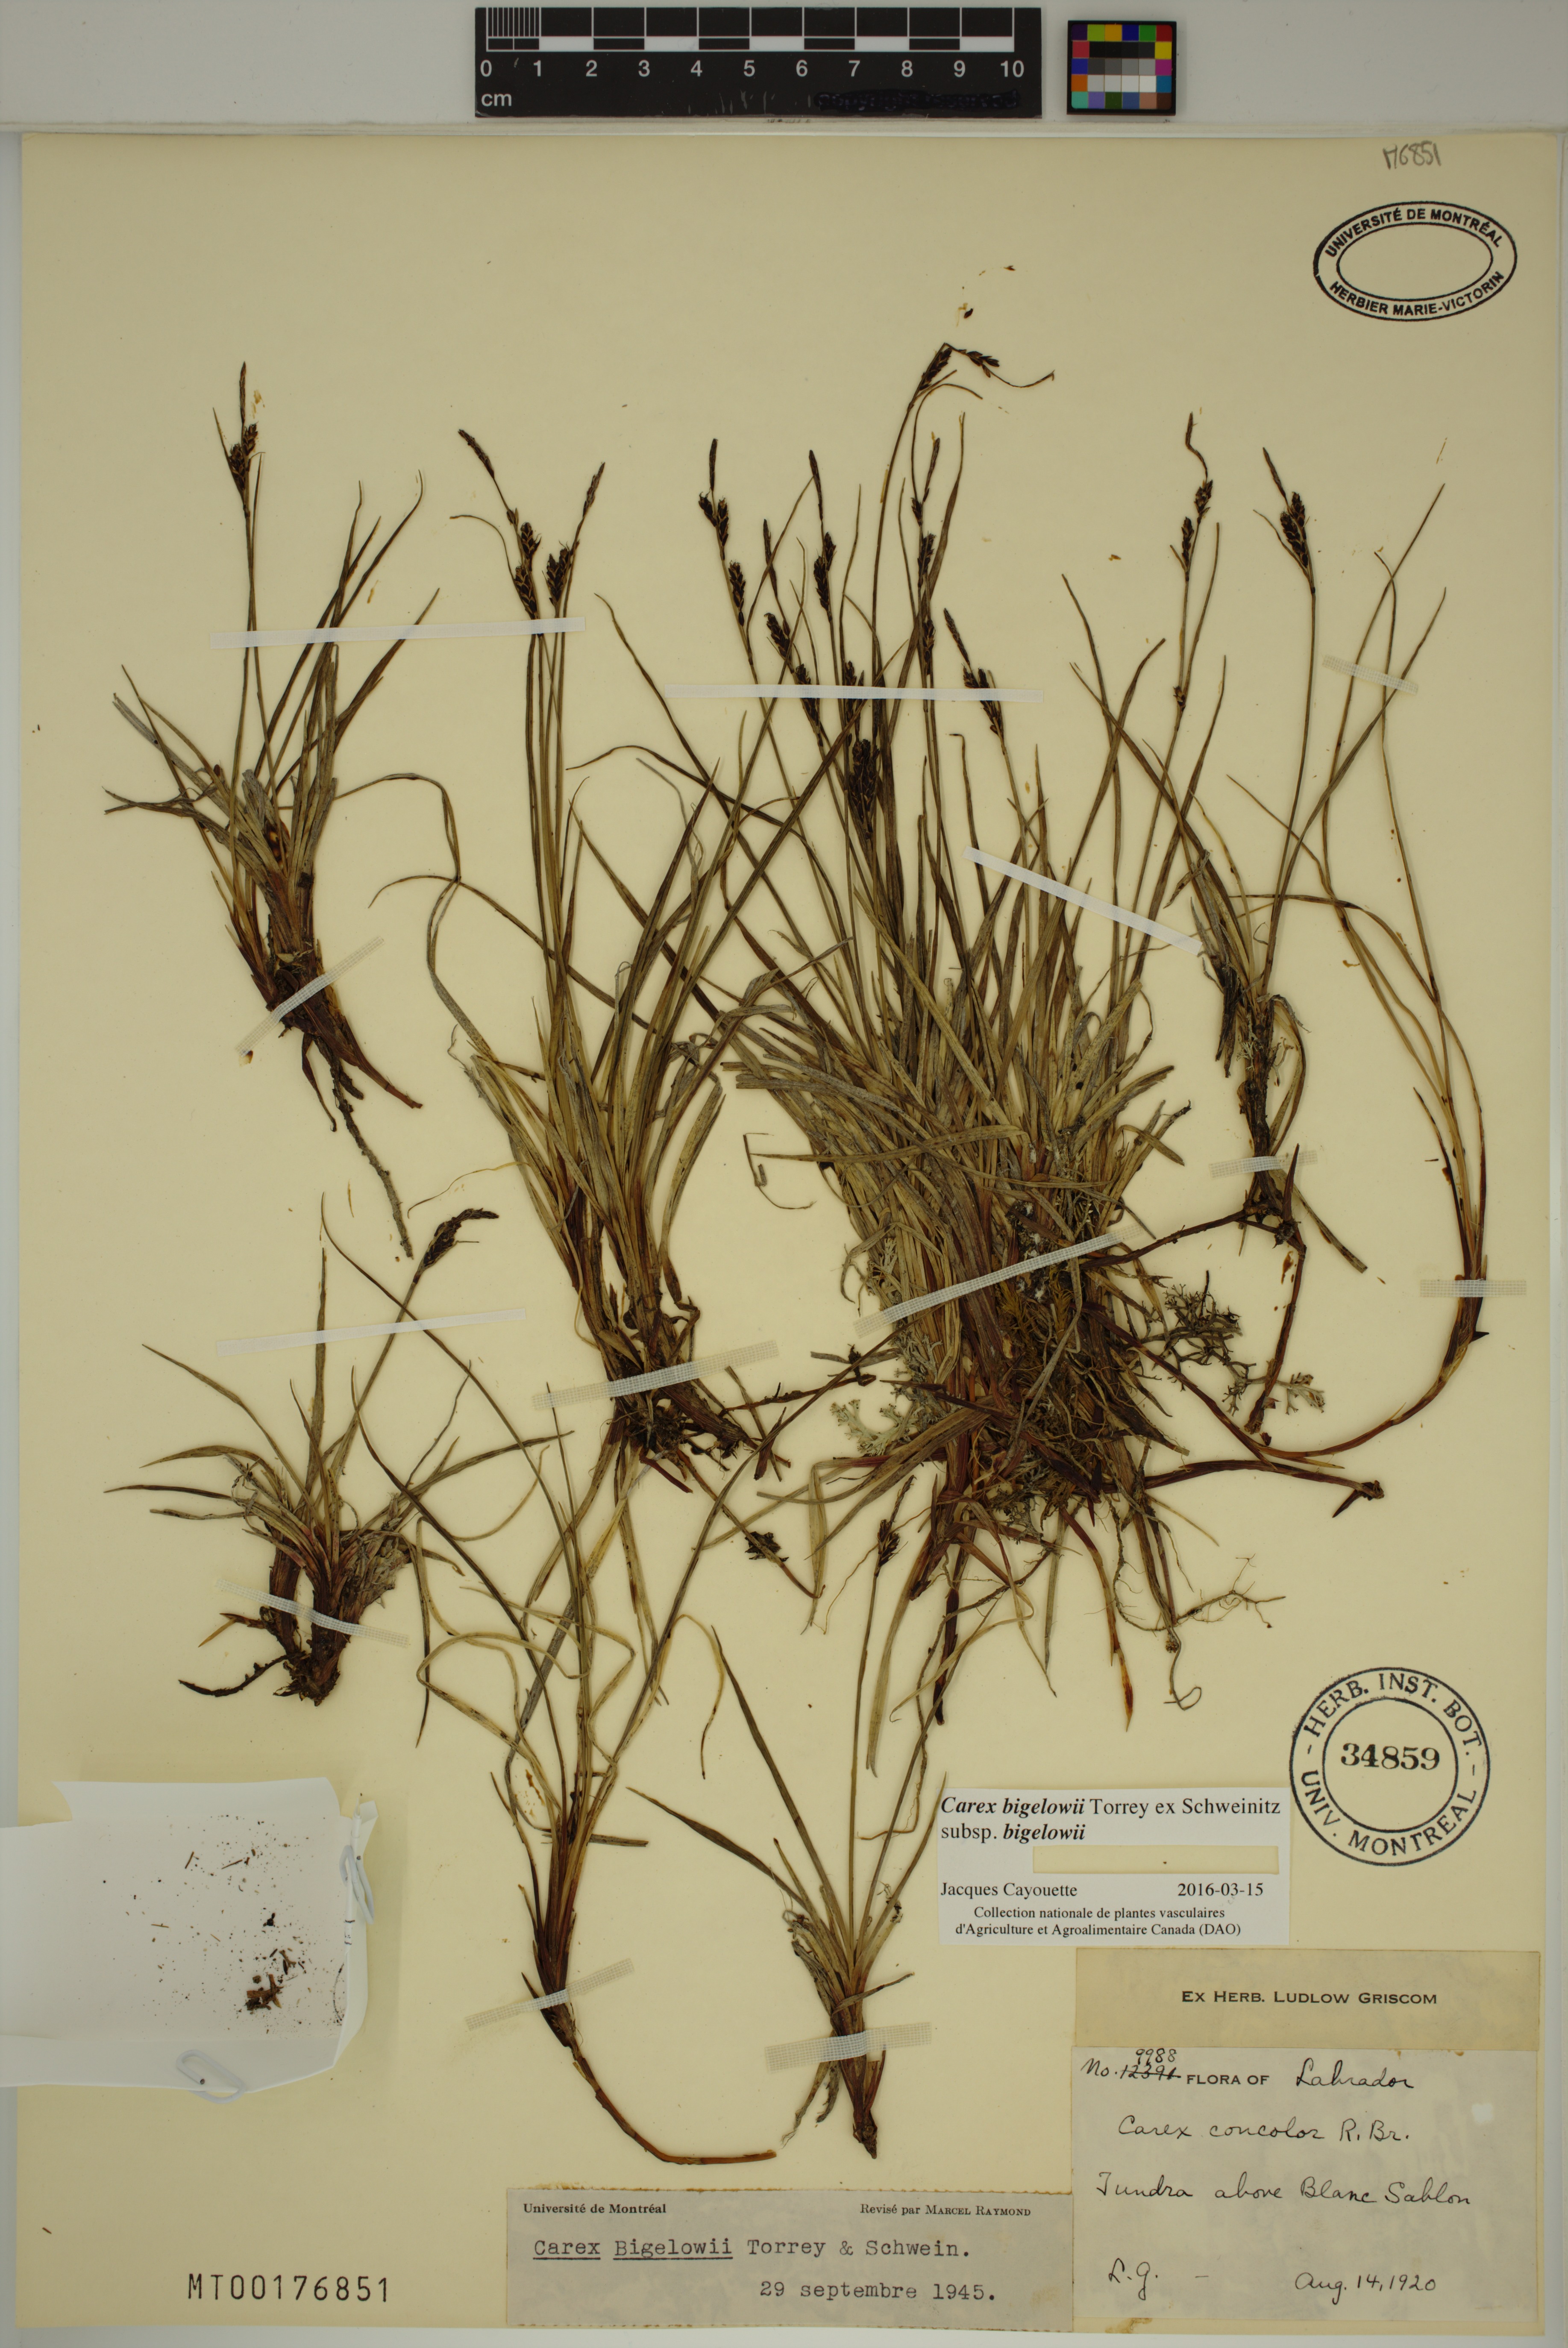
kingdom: Plantae
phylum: Tracheophyta
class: Liliopsida
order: Poales
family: Cyperaceae
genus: Carex
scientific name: Carex bigelowii
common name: Stiff sedge
